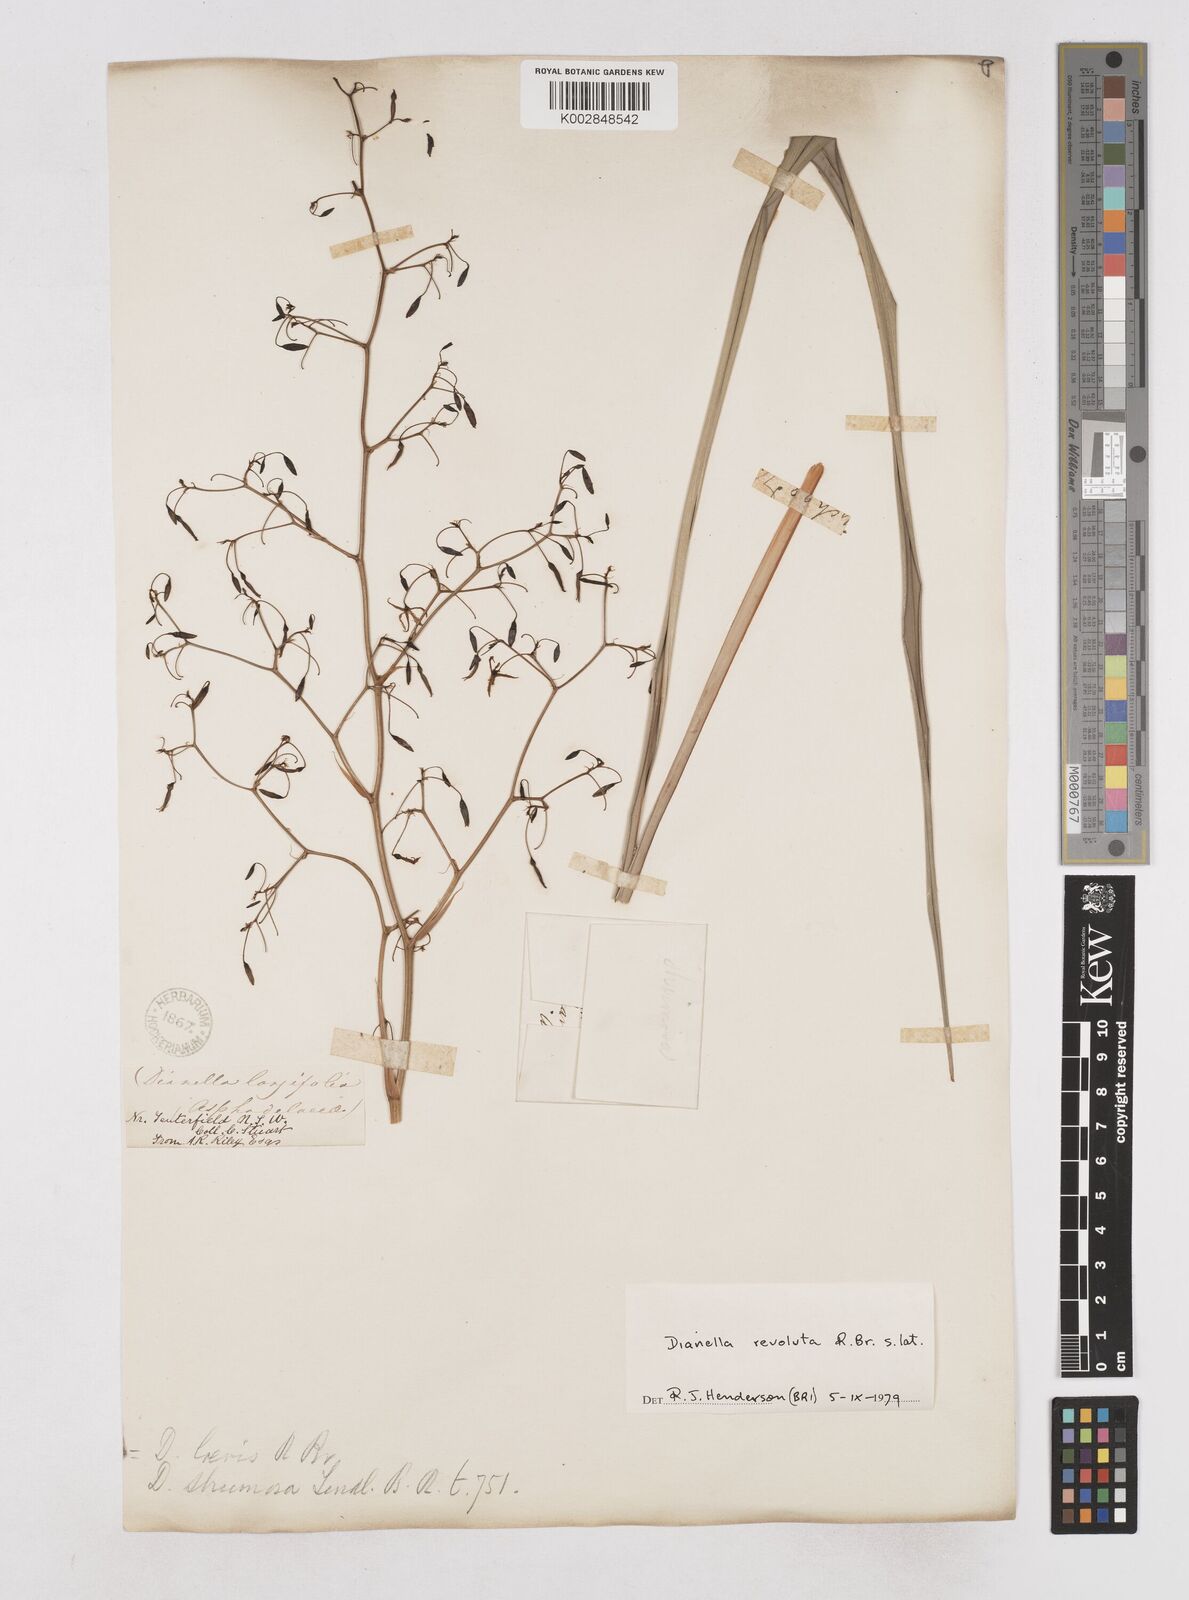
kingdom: Plantae
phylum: Tracheophyta
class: Liliopsida
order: Asparagales
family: Asphodelaceae
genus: Dianella
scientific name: Dianella revoluta
